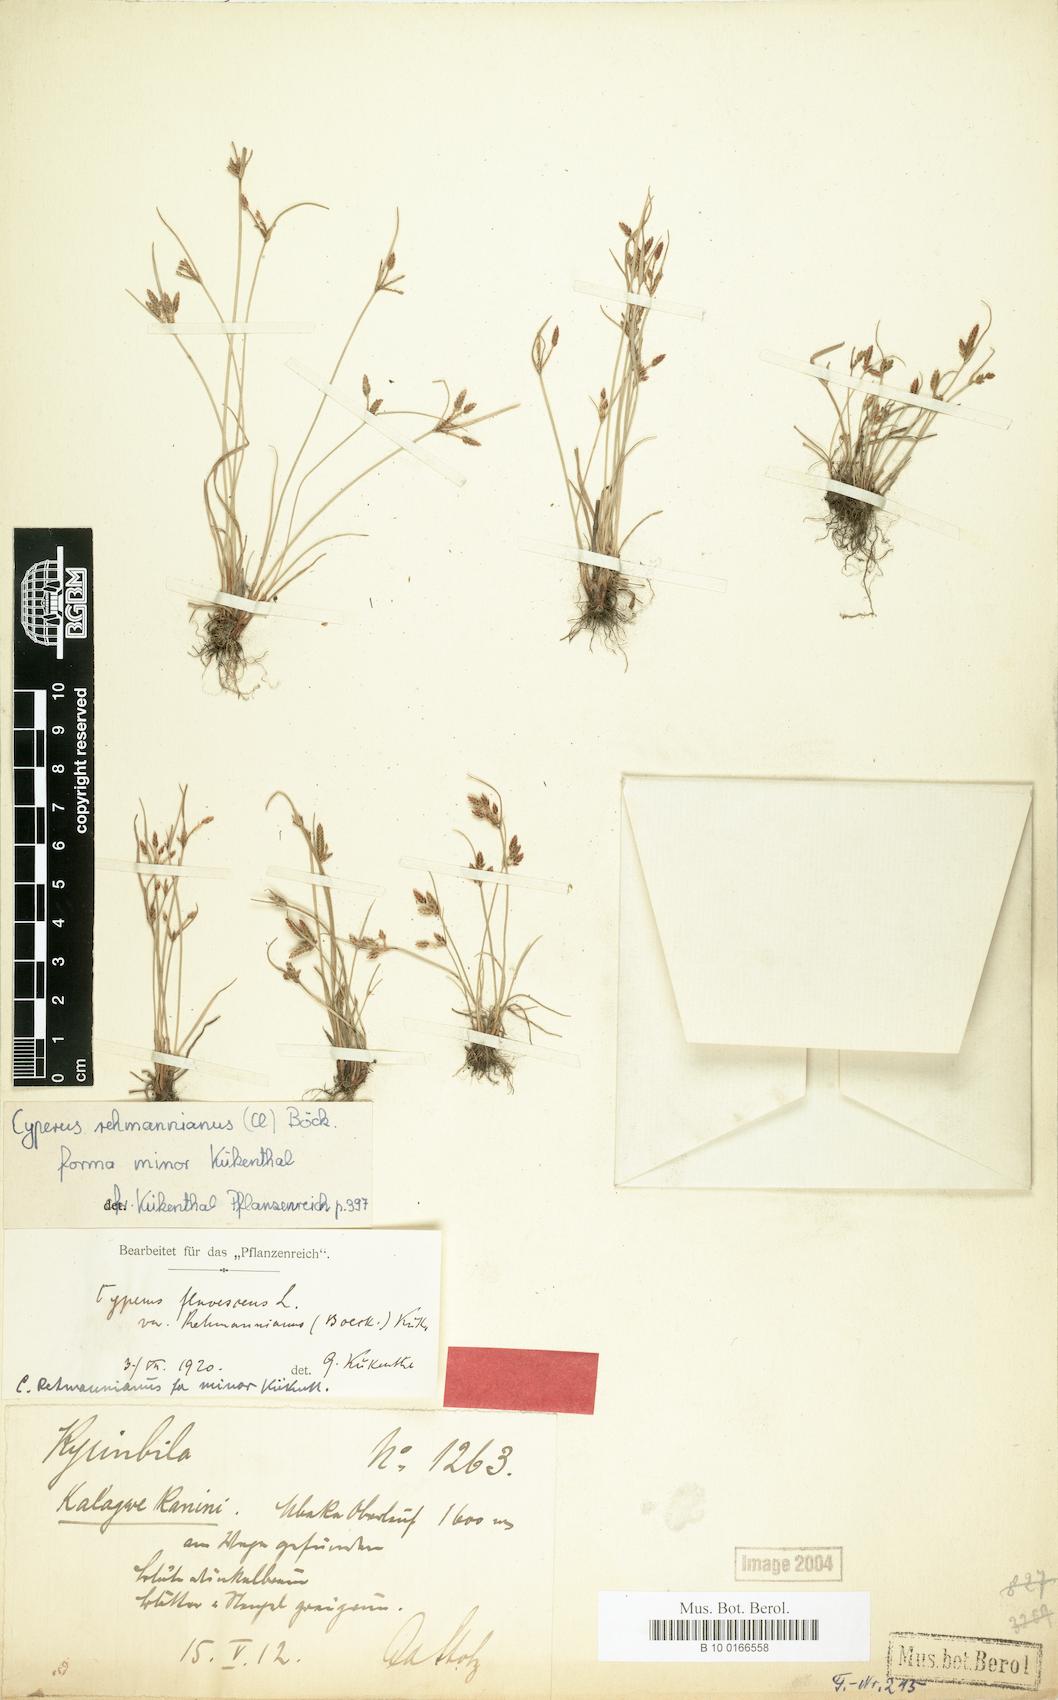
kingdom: Plantae
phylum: Tracheophyta
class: Liliopsida
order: Poales
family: Cyperaceae
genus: Cyperus
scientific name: Cyperus flavescens
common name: Yellow galingale
